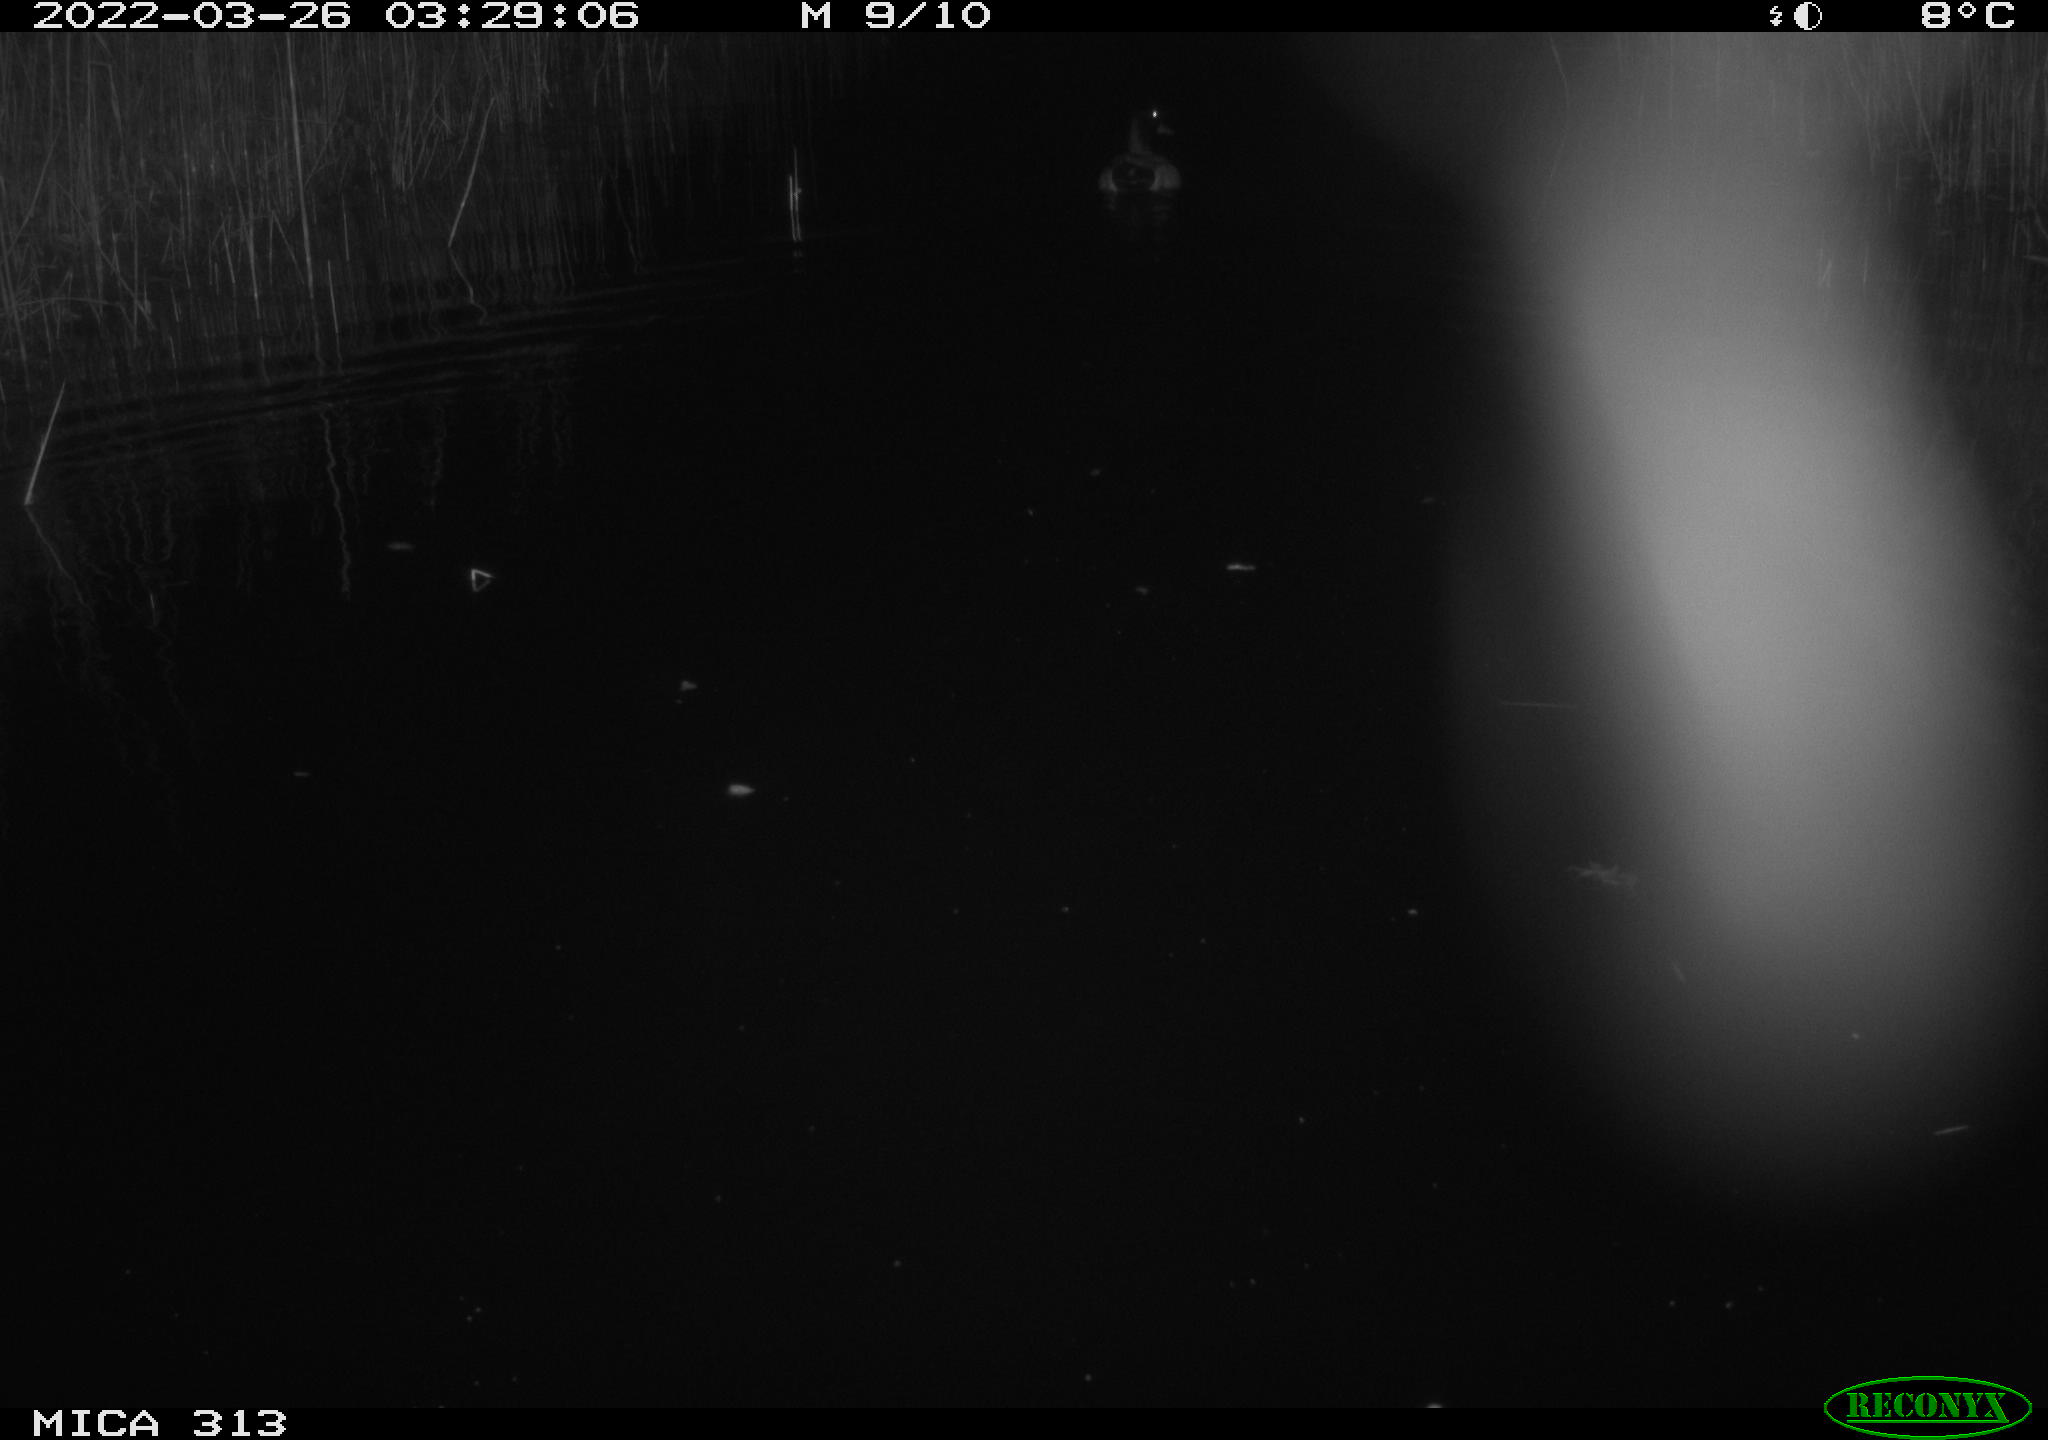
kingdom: Animalia
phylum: Chordata
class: Aves
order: Anseriformes
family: Anatidae
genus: Anas
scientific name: Anas platyrhynchos
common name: Mallard
